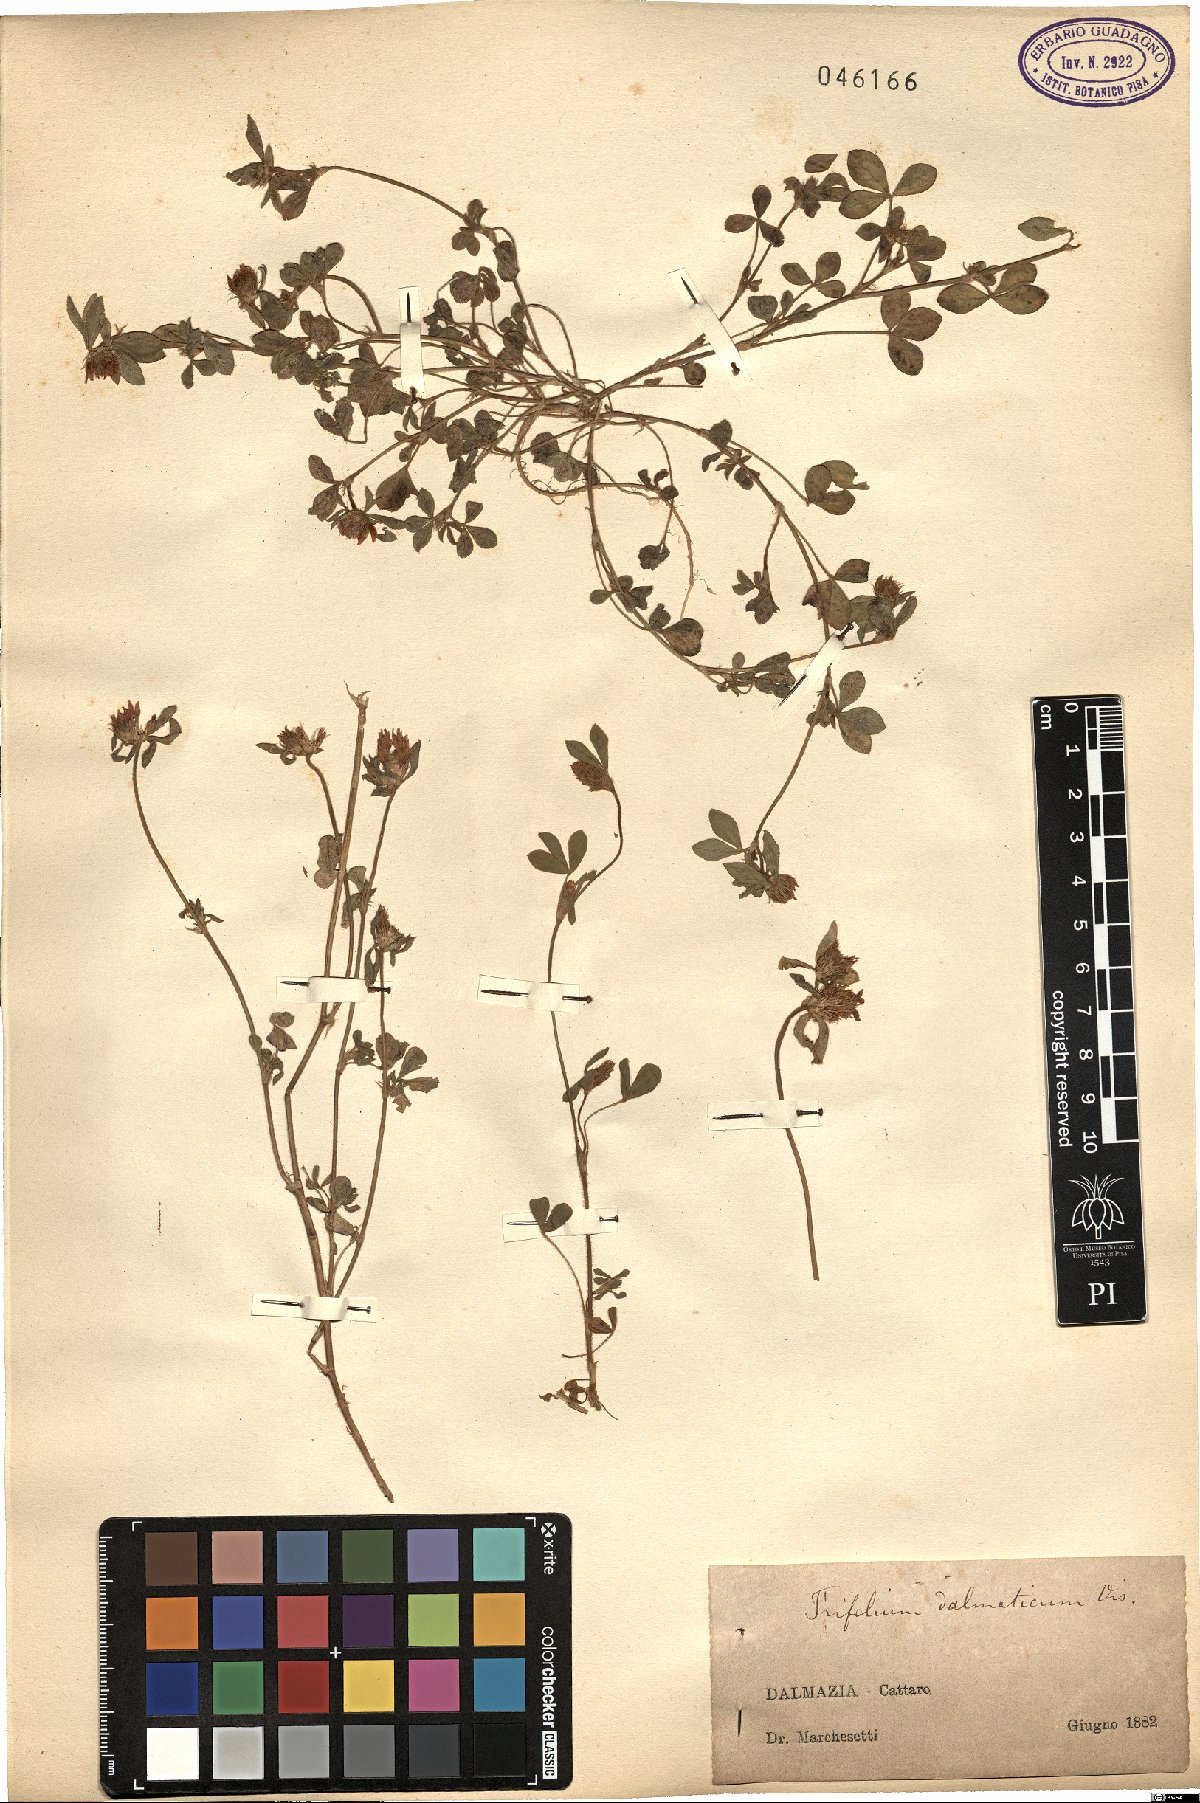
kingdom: Plantae
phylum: Tracheophyta
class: Magnoliopsida
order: Fabales
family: Fabaceae
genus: Trifolium
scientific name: Trifolium dalmaticum
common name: Dalmatian clover
